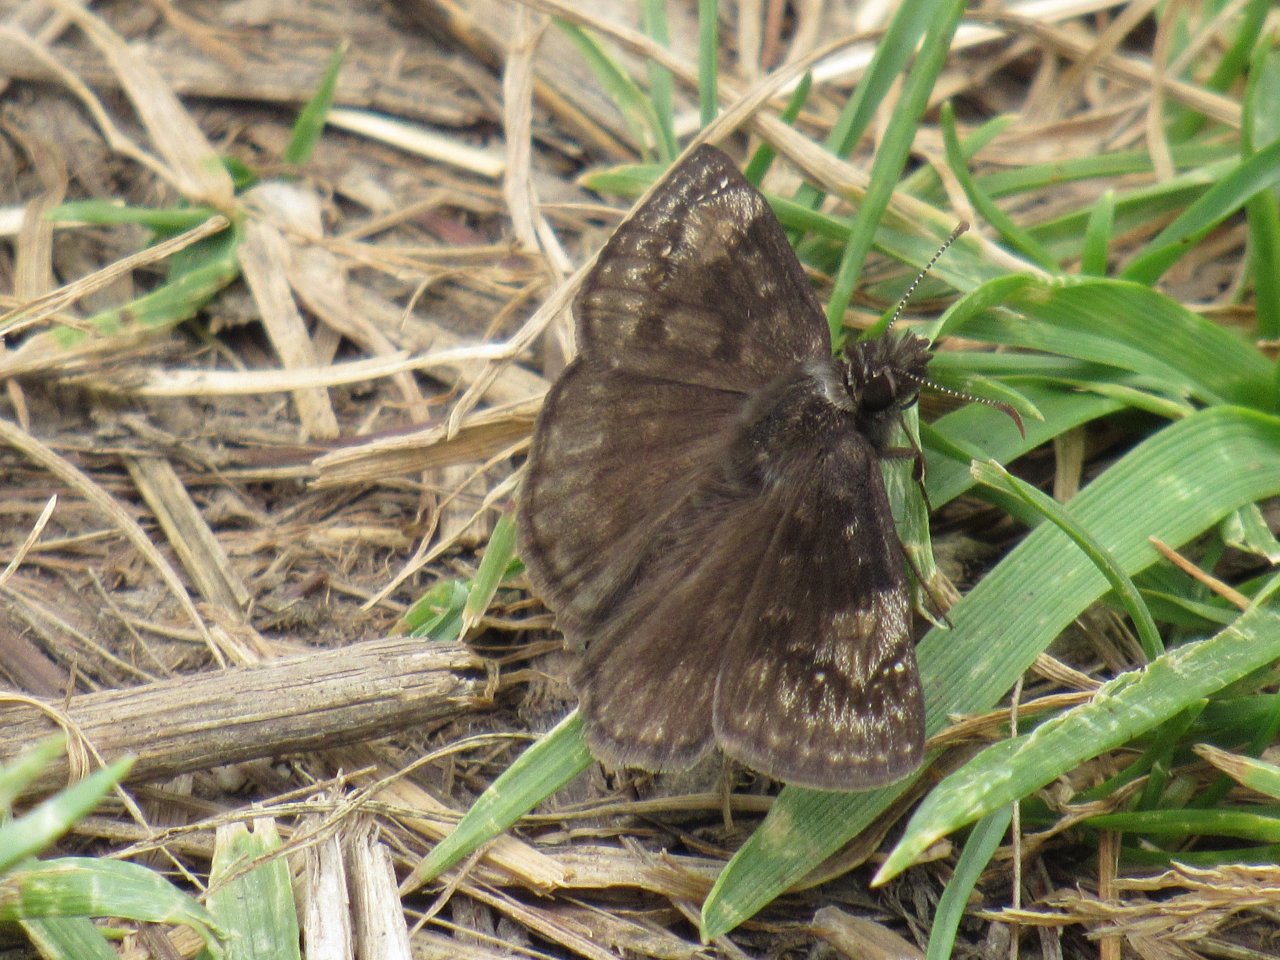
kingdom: Animalia
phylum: Arthropoda
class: Insecta
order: Lepidoptera
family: Hesperiidae
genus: Gesta
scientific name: Gesta
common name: Wild Indigo Duskywing
